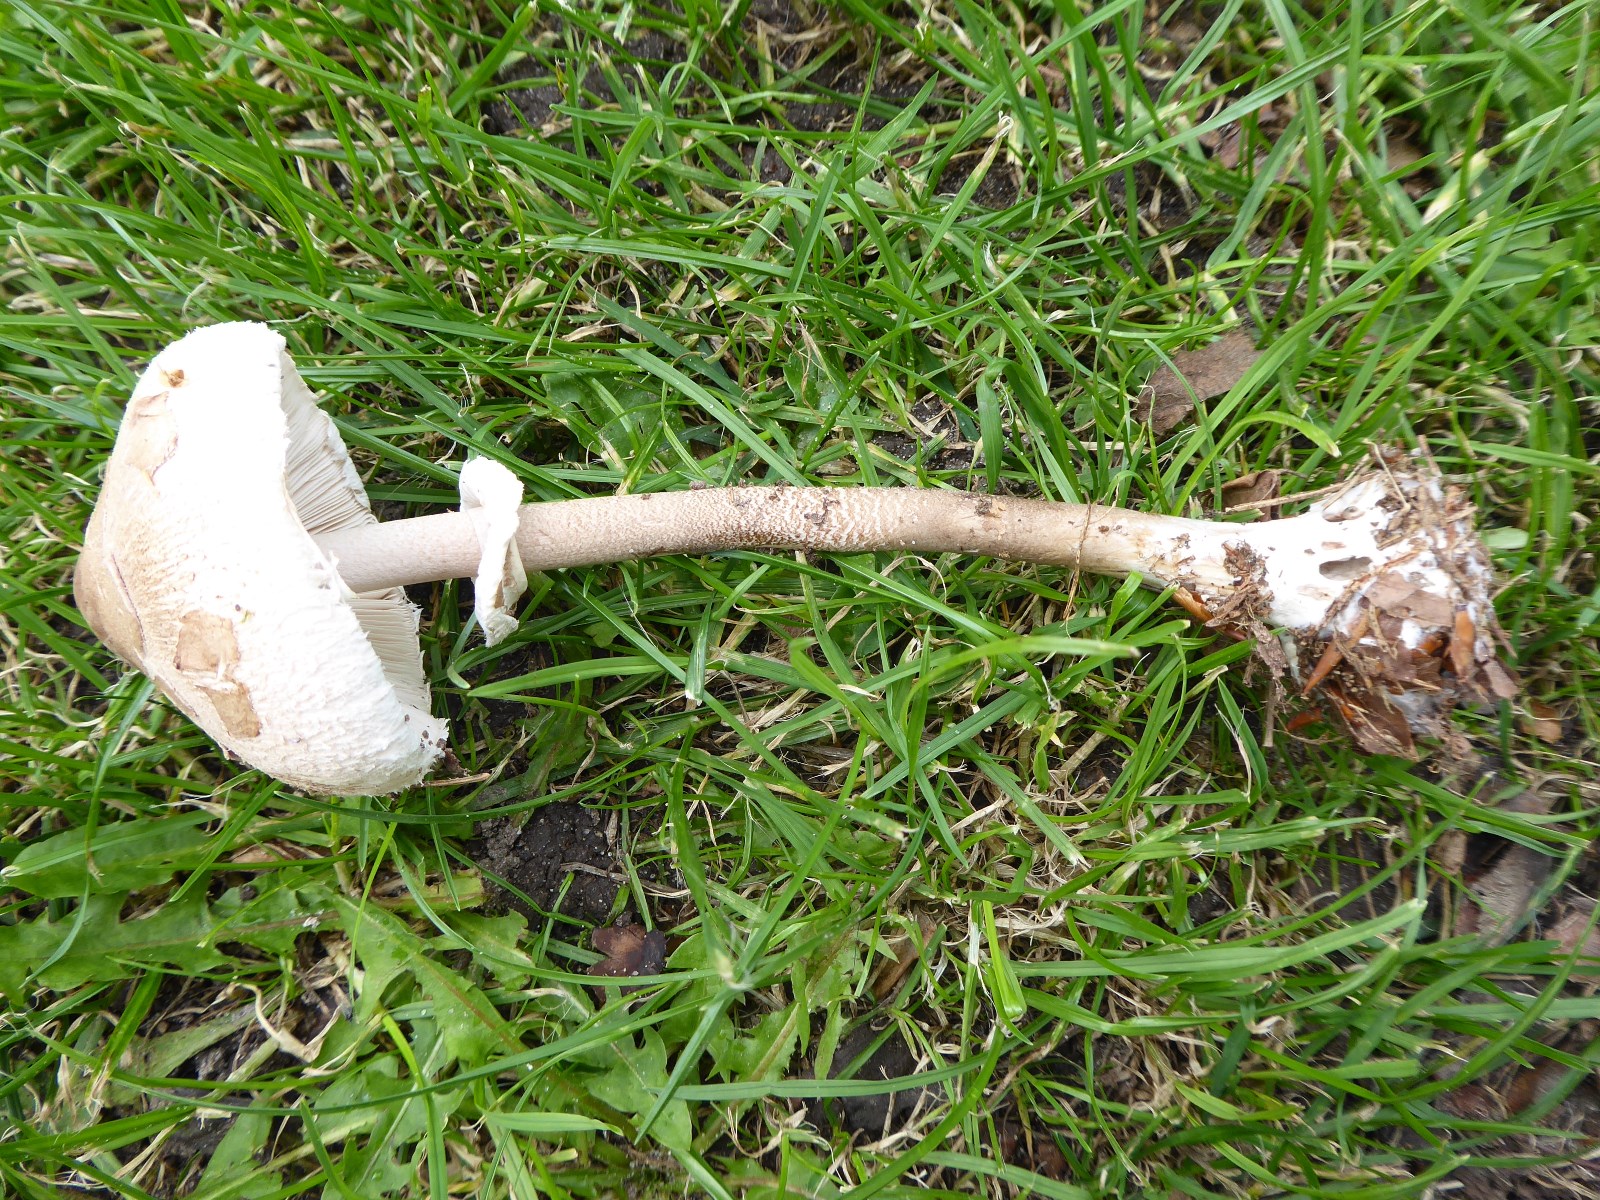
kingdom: Fungi
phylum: Basidiomycota
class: Agaricomycetes
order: Agaricales
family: Agaricaceae
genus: Macrolepiota
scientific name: Macrolepiota mastoidea
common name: puklet kæmpeparasolhat
